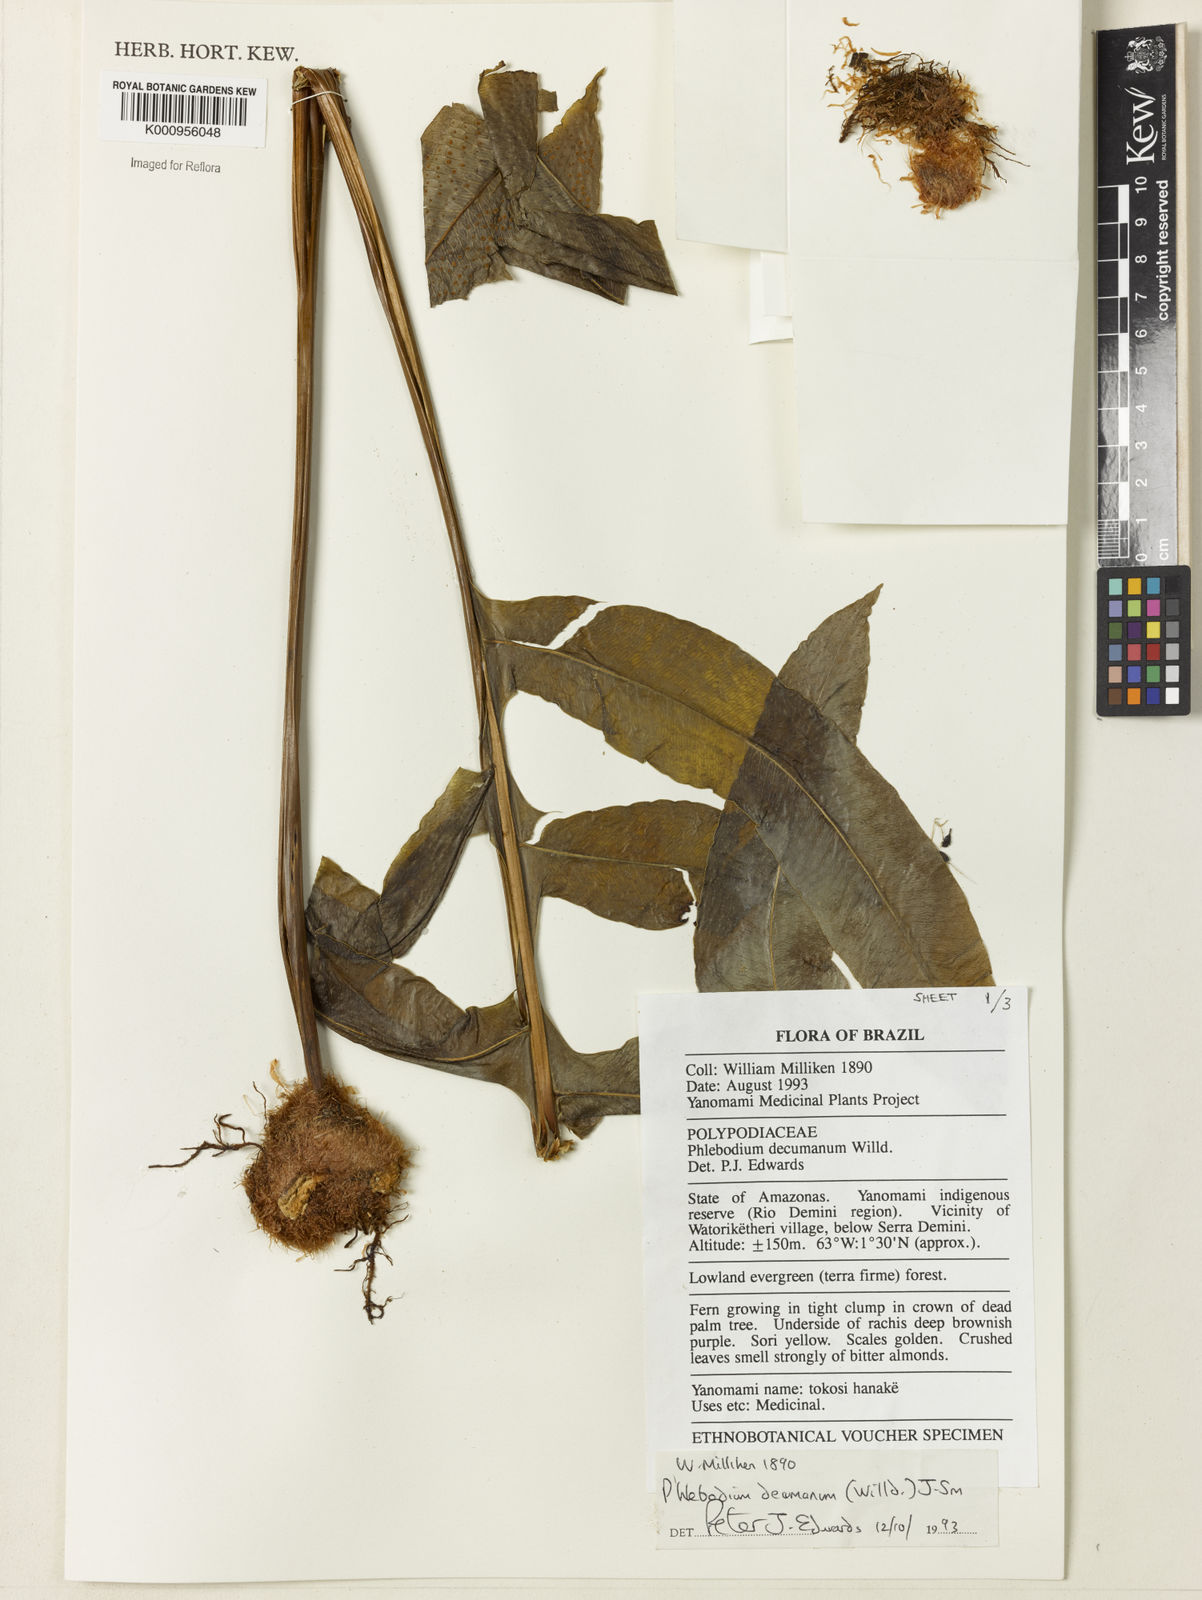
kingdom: Plantae
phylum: Tracheophyta
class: Polypodiopsida
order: Polypodiales
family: Polypodiaceae
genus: Phlebodium
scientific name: Phlebodium decumanum
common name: Golden polypod
